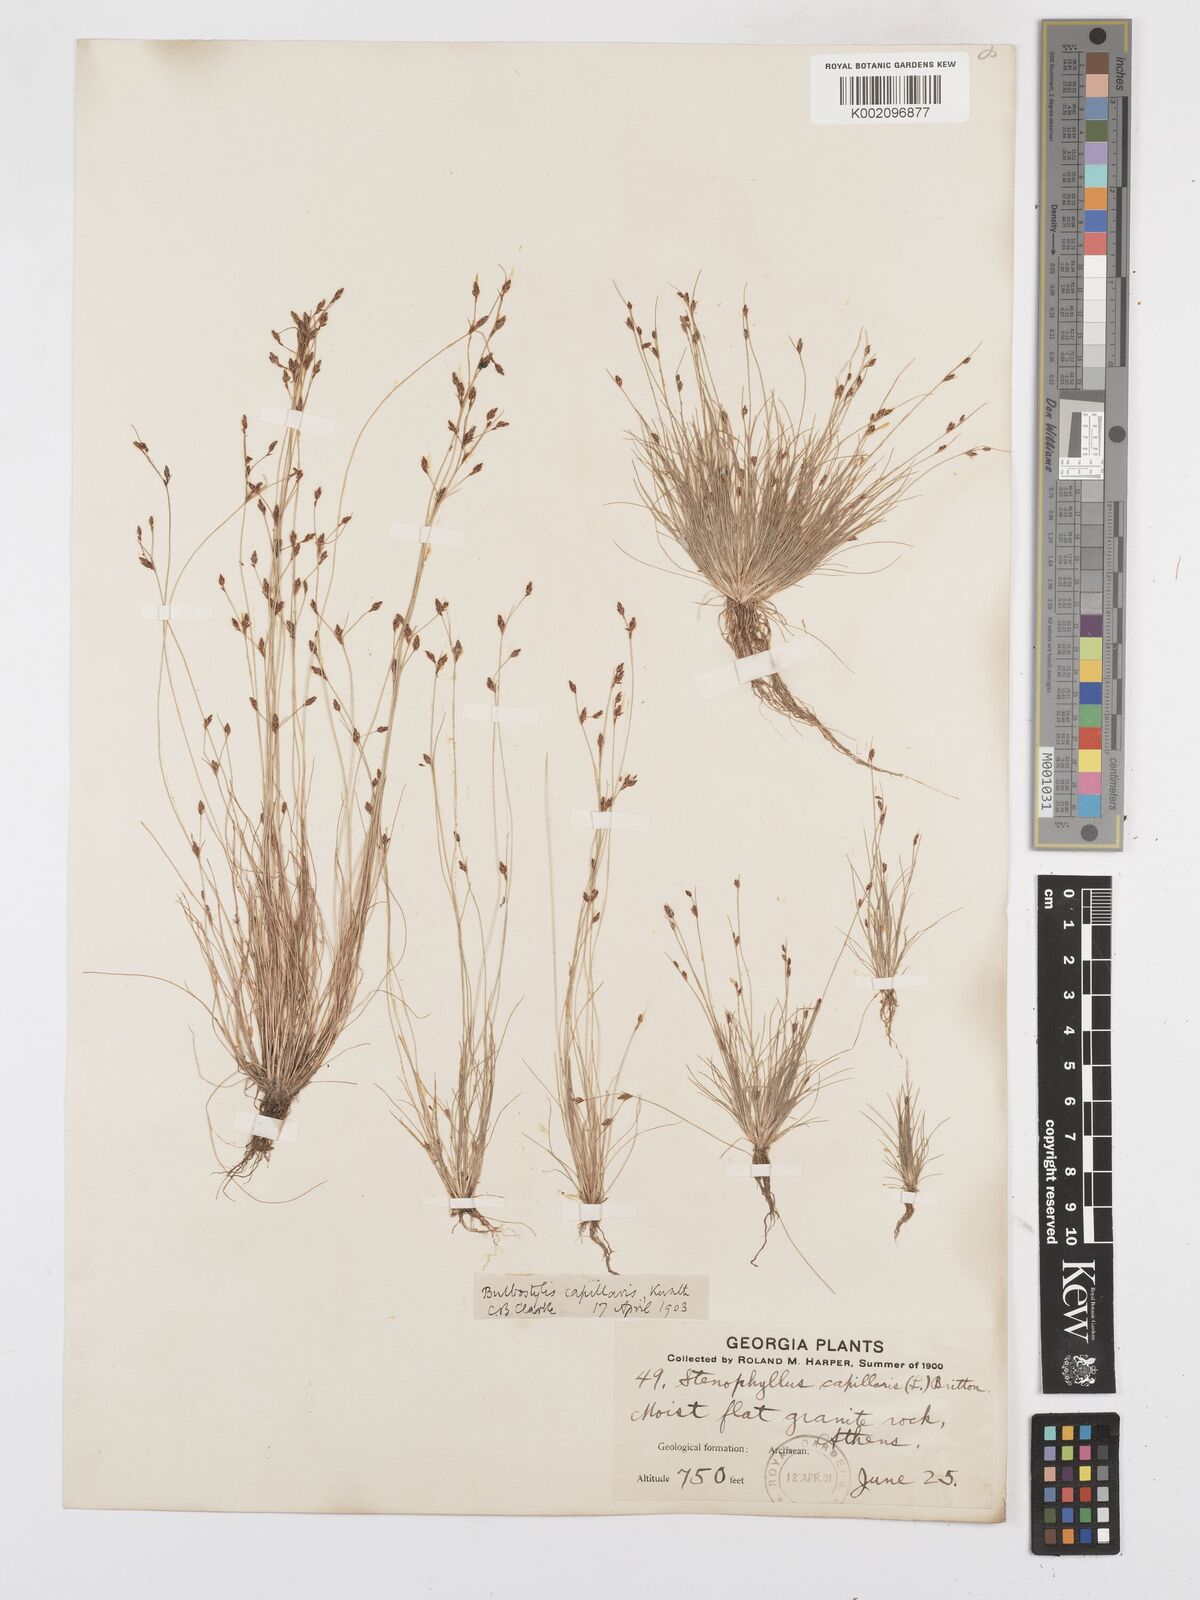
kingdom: Plantae
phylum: Tracheophyta
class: Liliopsida
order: Poales
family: Cyperaceae
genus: Bulbostylis
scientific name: Bulbostylis capillaris
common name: Densetuft hairsedge
